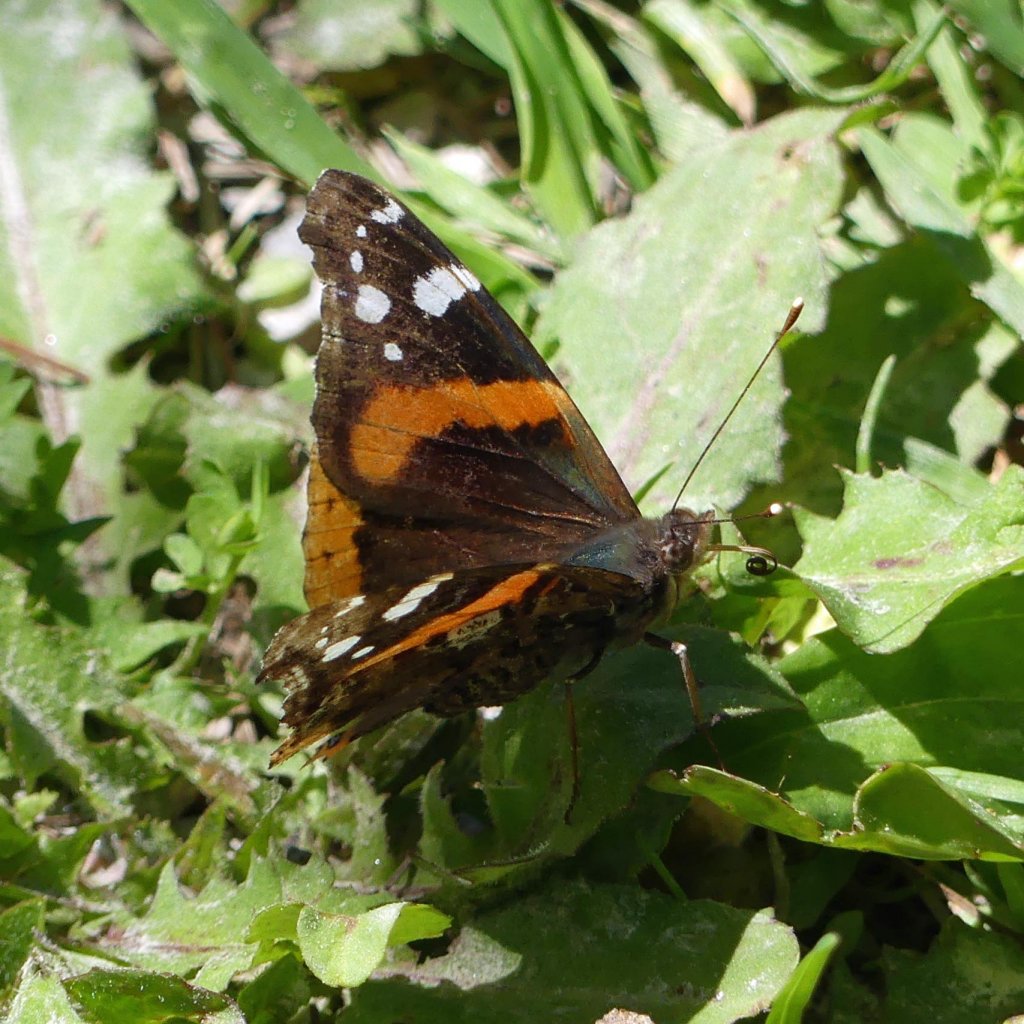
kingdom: Animalia
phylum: Arthropoda
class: Insecta
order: Lepidoptera
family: Nymphalidae
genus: Vanessa
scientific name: Vanessa atalanta
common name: Red Admiral
